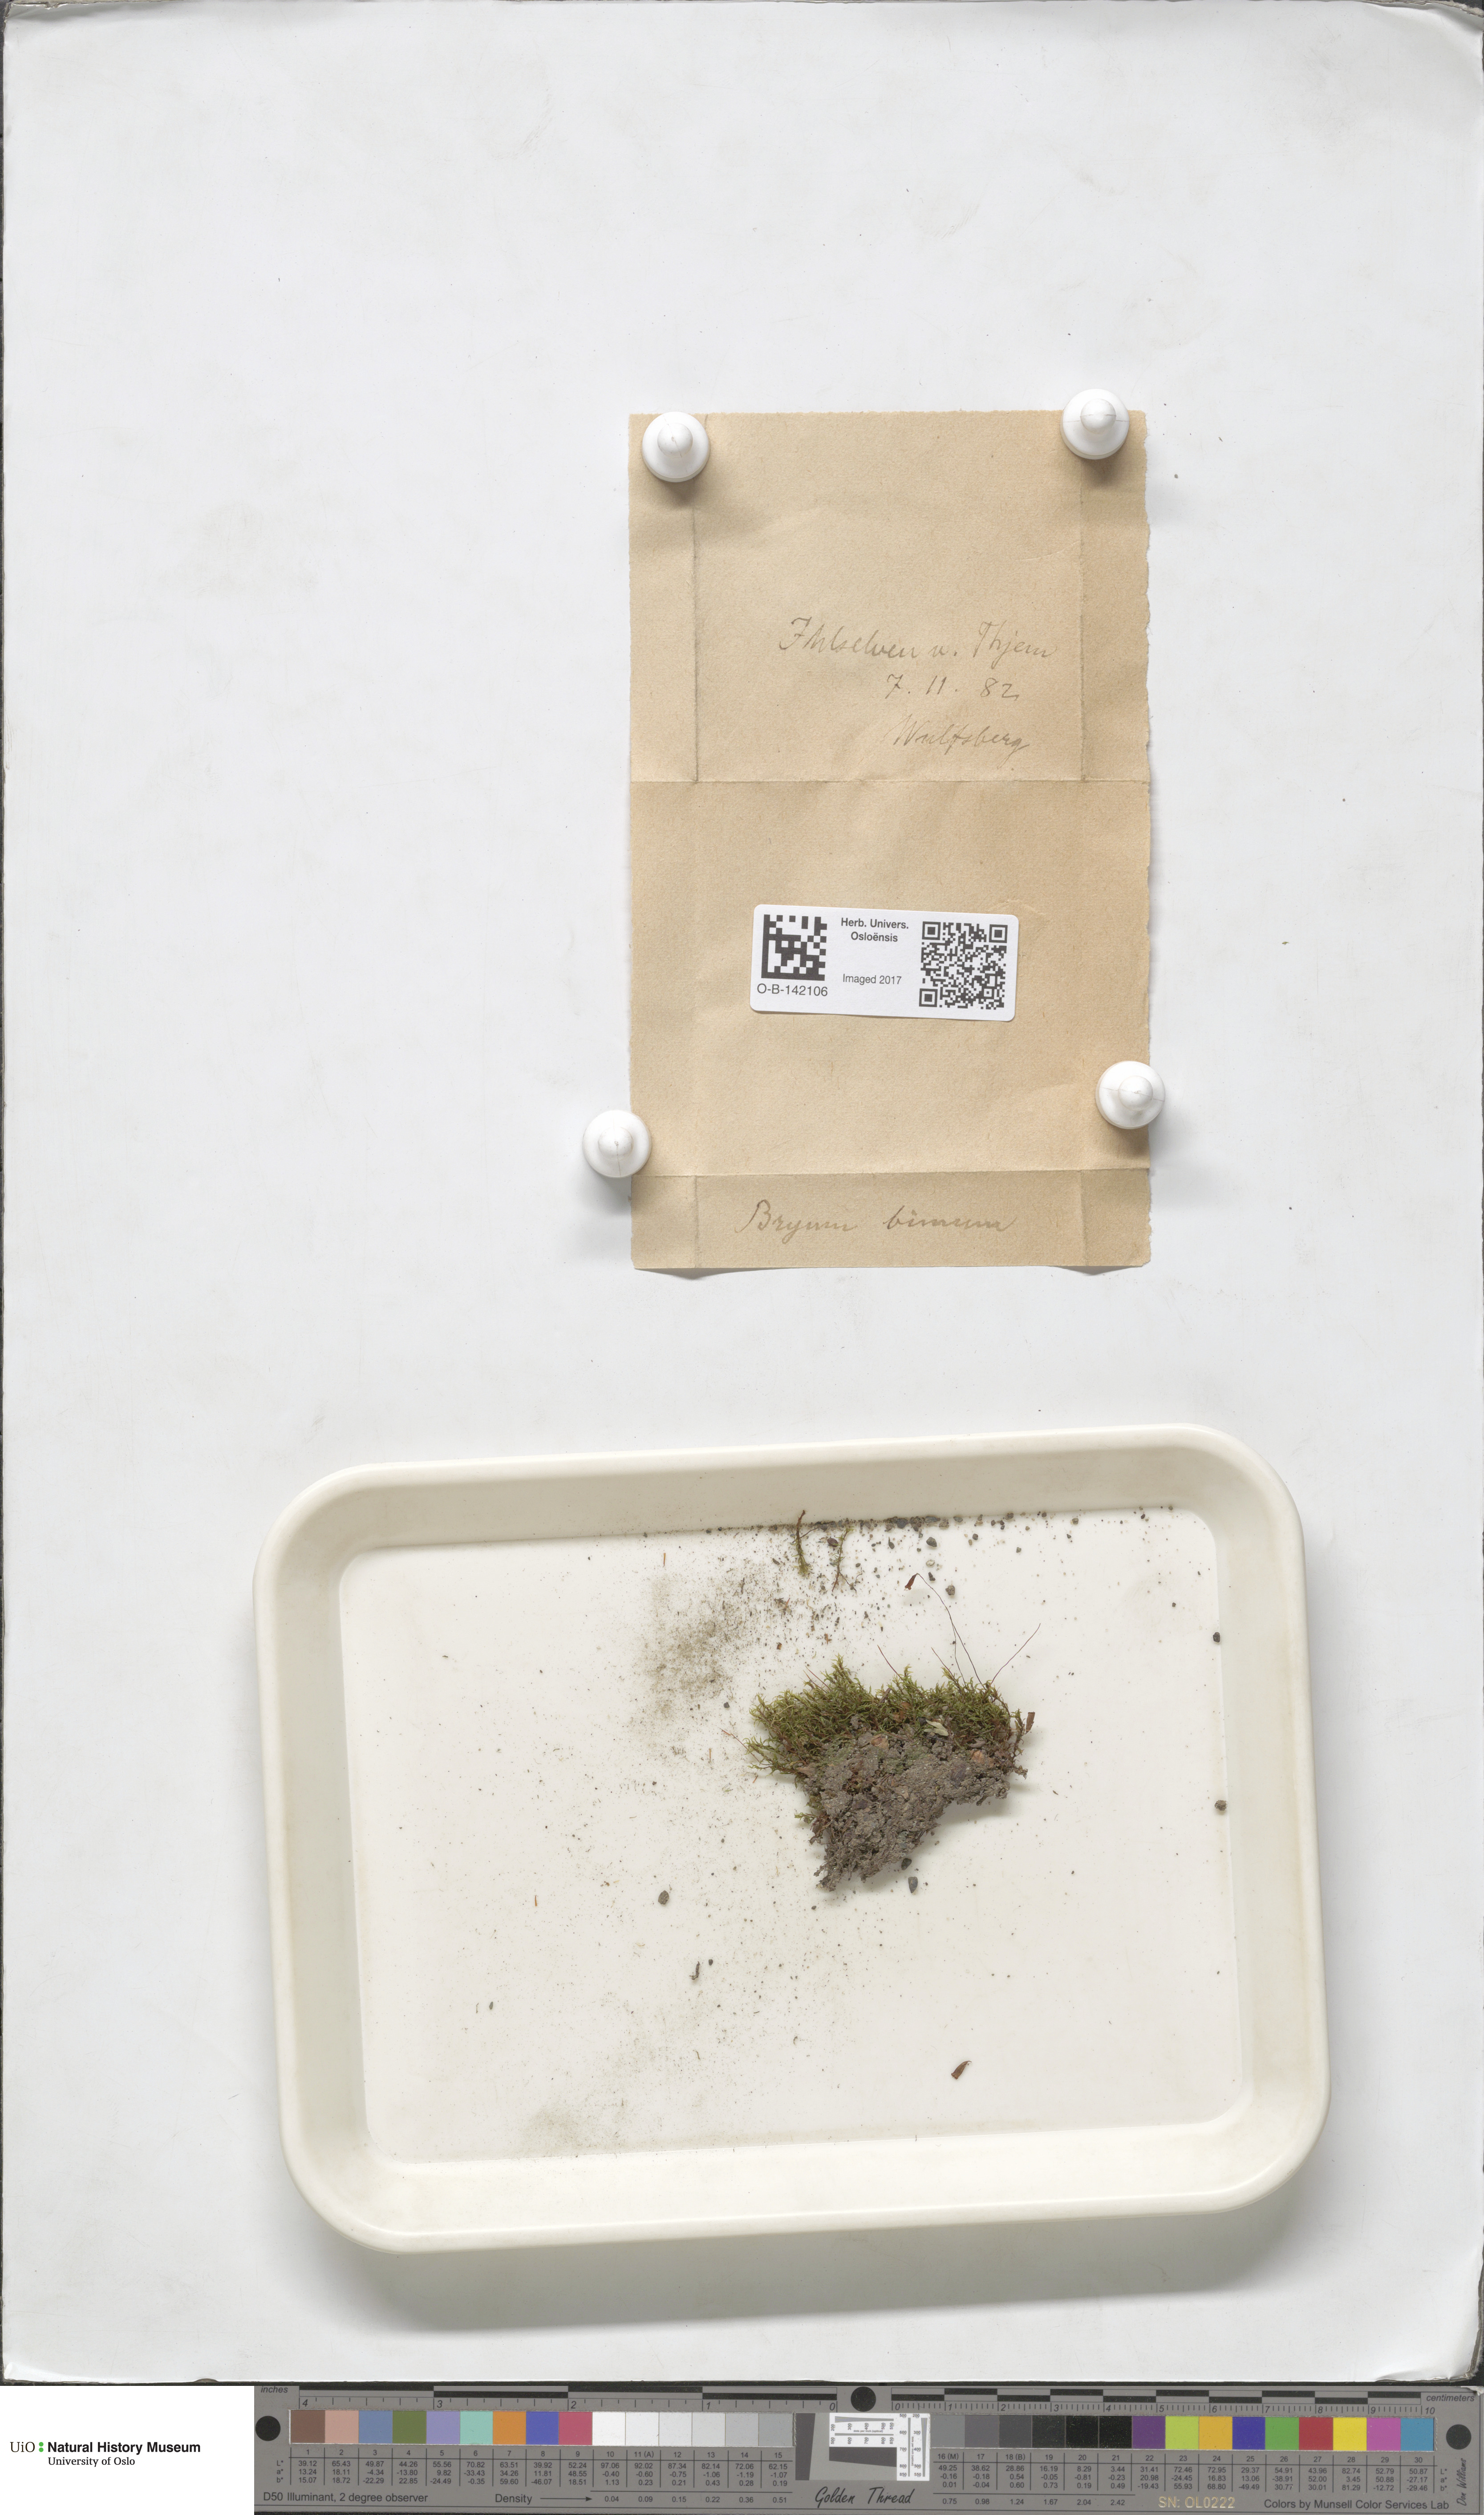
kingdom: Plantae
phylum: Bryophyta
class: Bryopsida
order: Bryales
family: Bryaceae
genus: Ptychostomum
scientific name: Ptychostomum pseudotriquetrum
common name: Long-leaved thread moss
